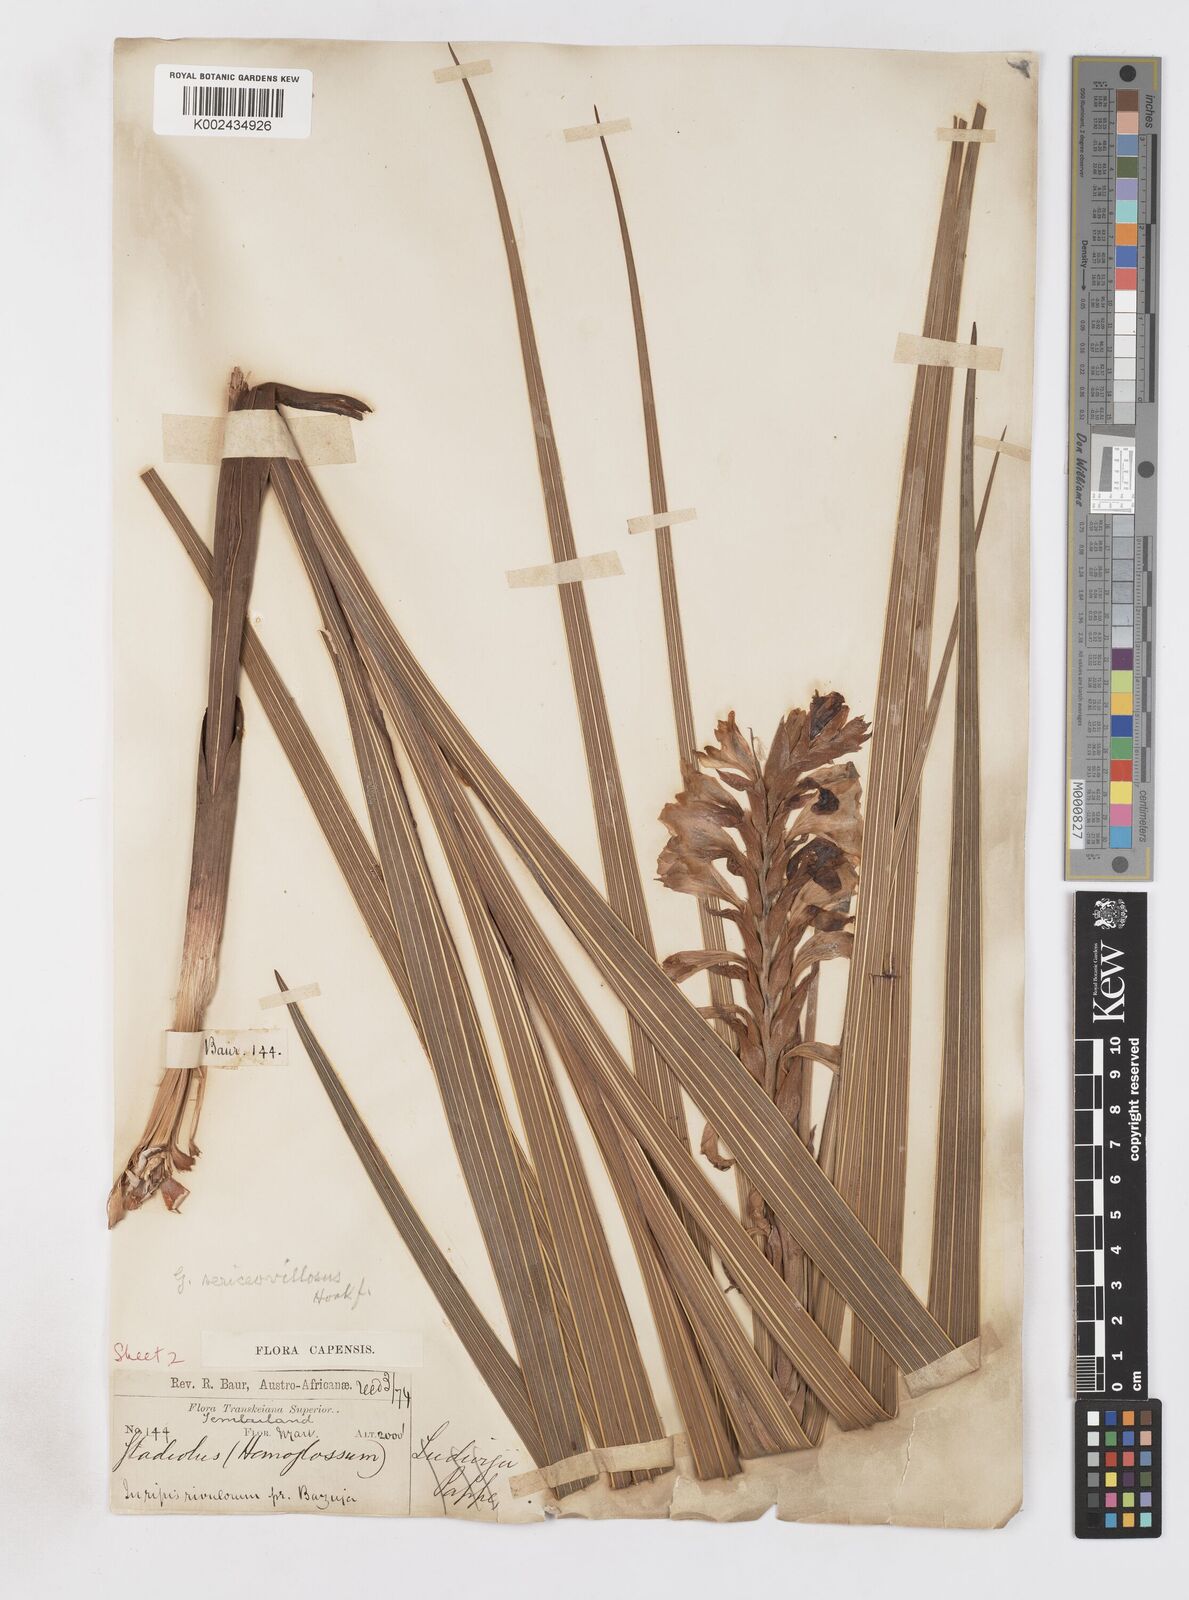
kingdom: Plantae
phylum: Tracheophyta
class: Liliopsida
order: Asparagales
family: Iridaceae
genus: Gladiolus
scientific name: Gladiolus sericeovillosus
